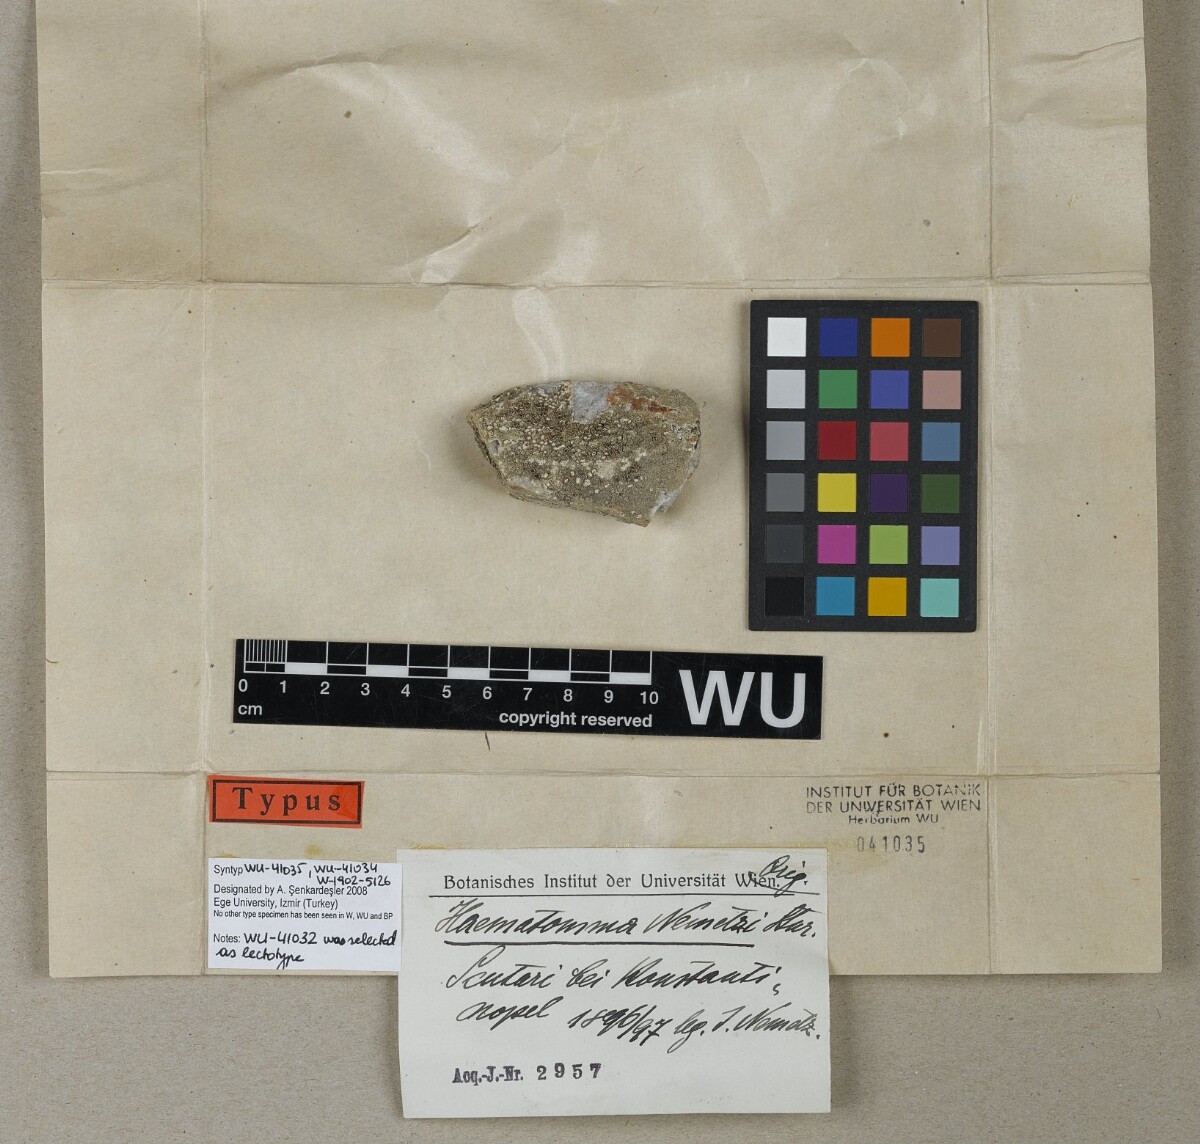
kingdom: Fungi
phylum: Ascomycota
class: Lecanoromycetes
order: Lecanorales
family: Haematommataceae
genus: Haematomma
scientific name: Haematomma nemetzii
